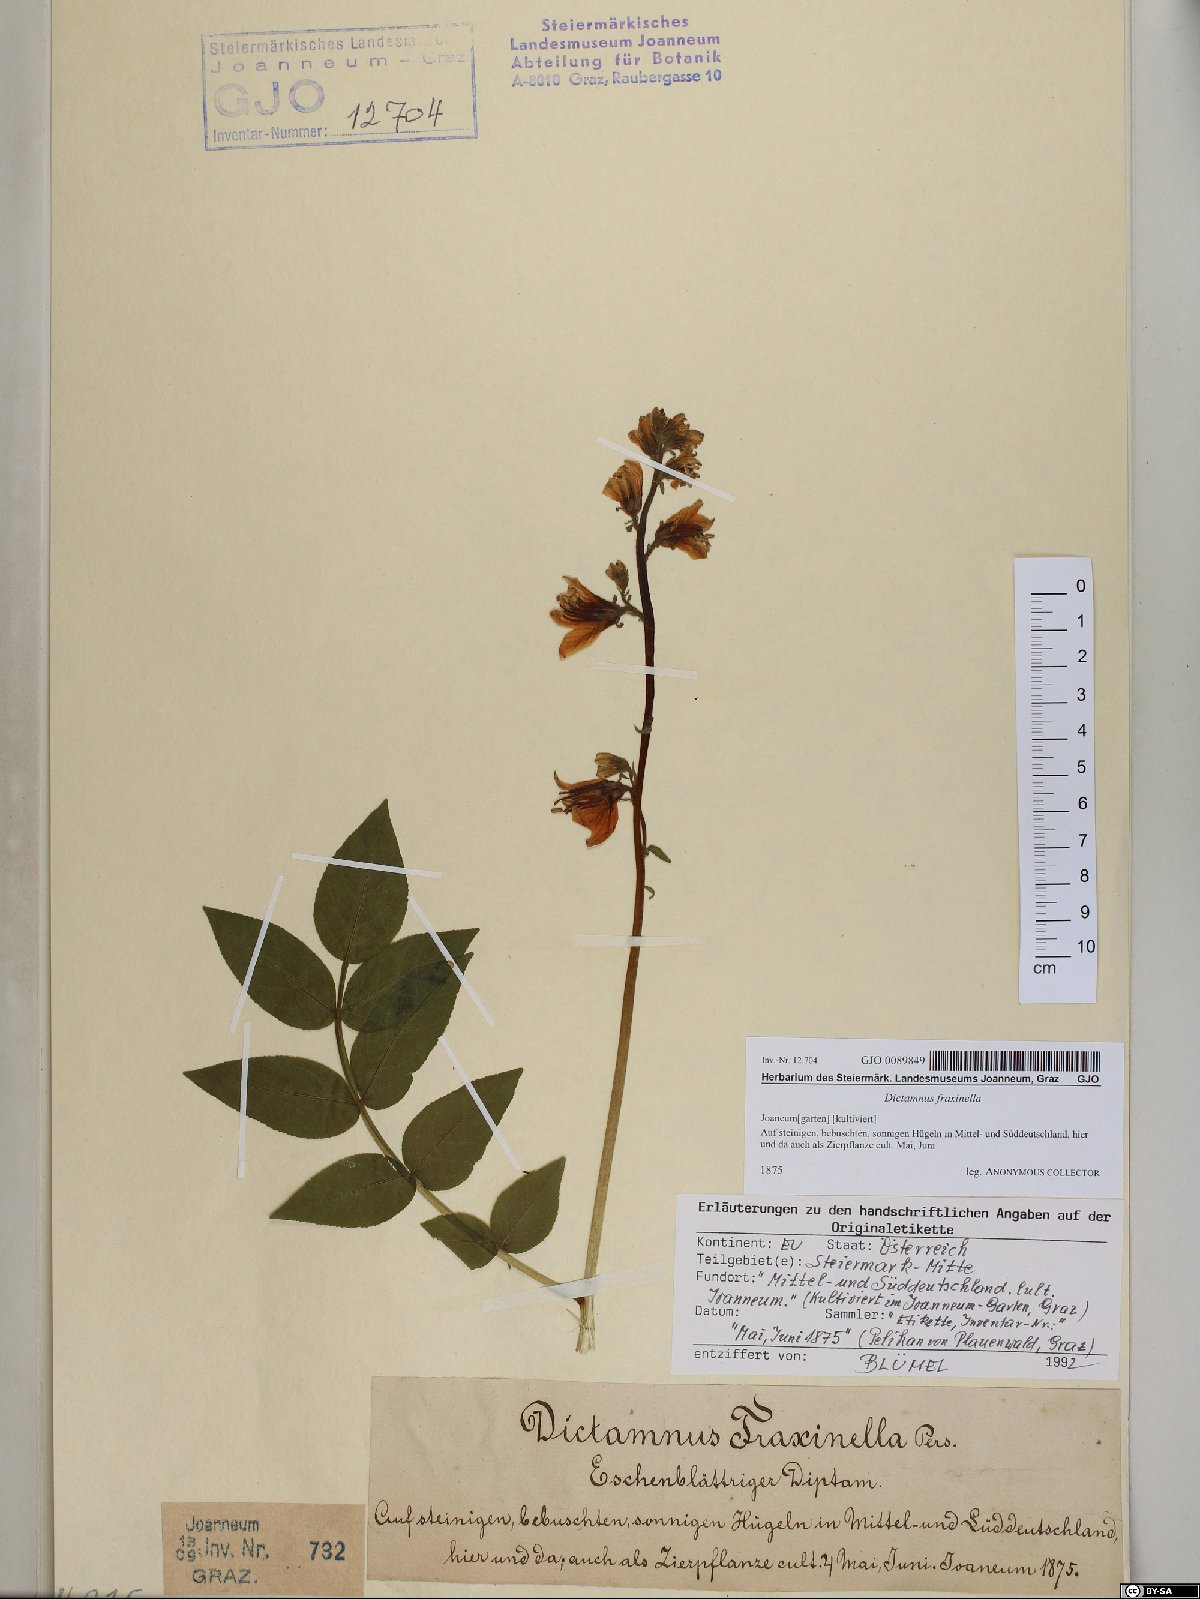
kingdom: Plantae
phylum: Tracheophyta
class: Magnoliopsida
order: Sapindales
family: Rutaceae
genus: Dictamnus
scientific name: Dictamnus albus
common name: Gasplant
